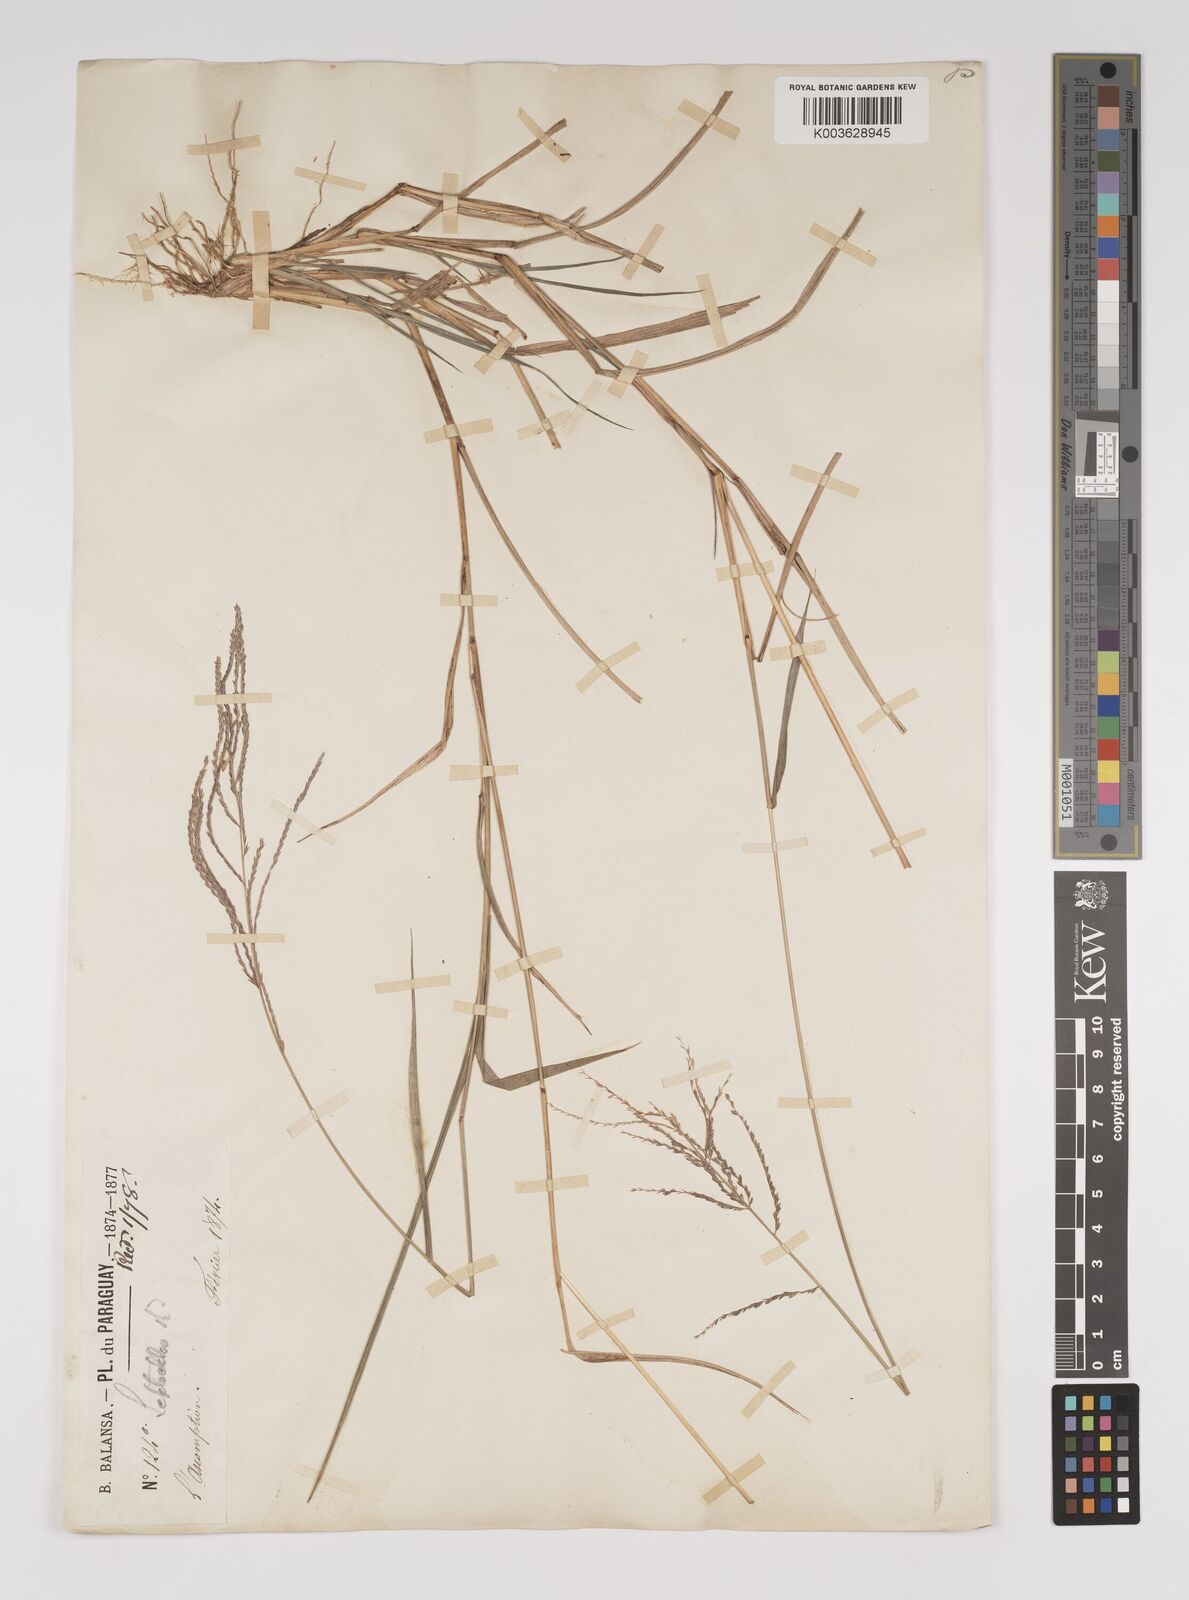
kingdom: Plantae
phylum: Tracheophyta
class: Liliopsida
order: Poales
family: Poaceae
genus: Leptochloa
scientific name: Leptochloa virgata
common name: Tropical sprangletop
